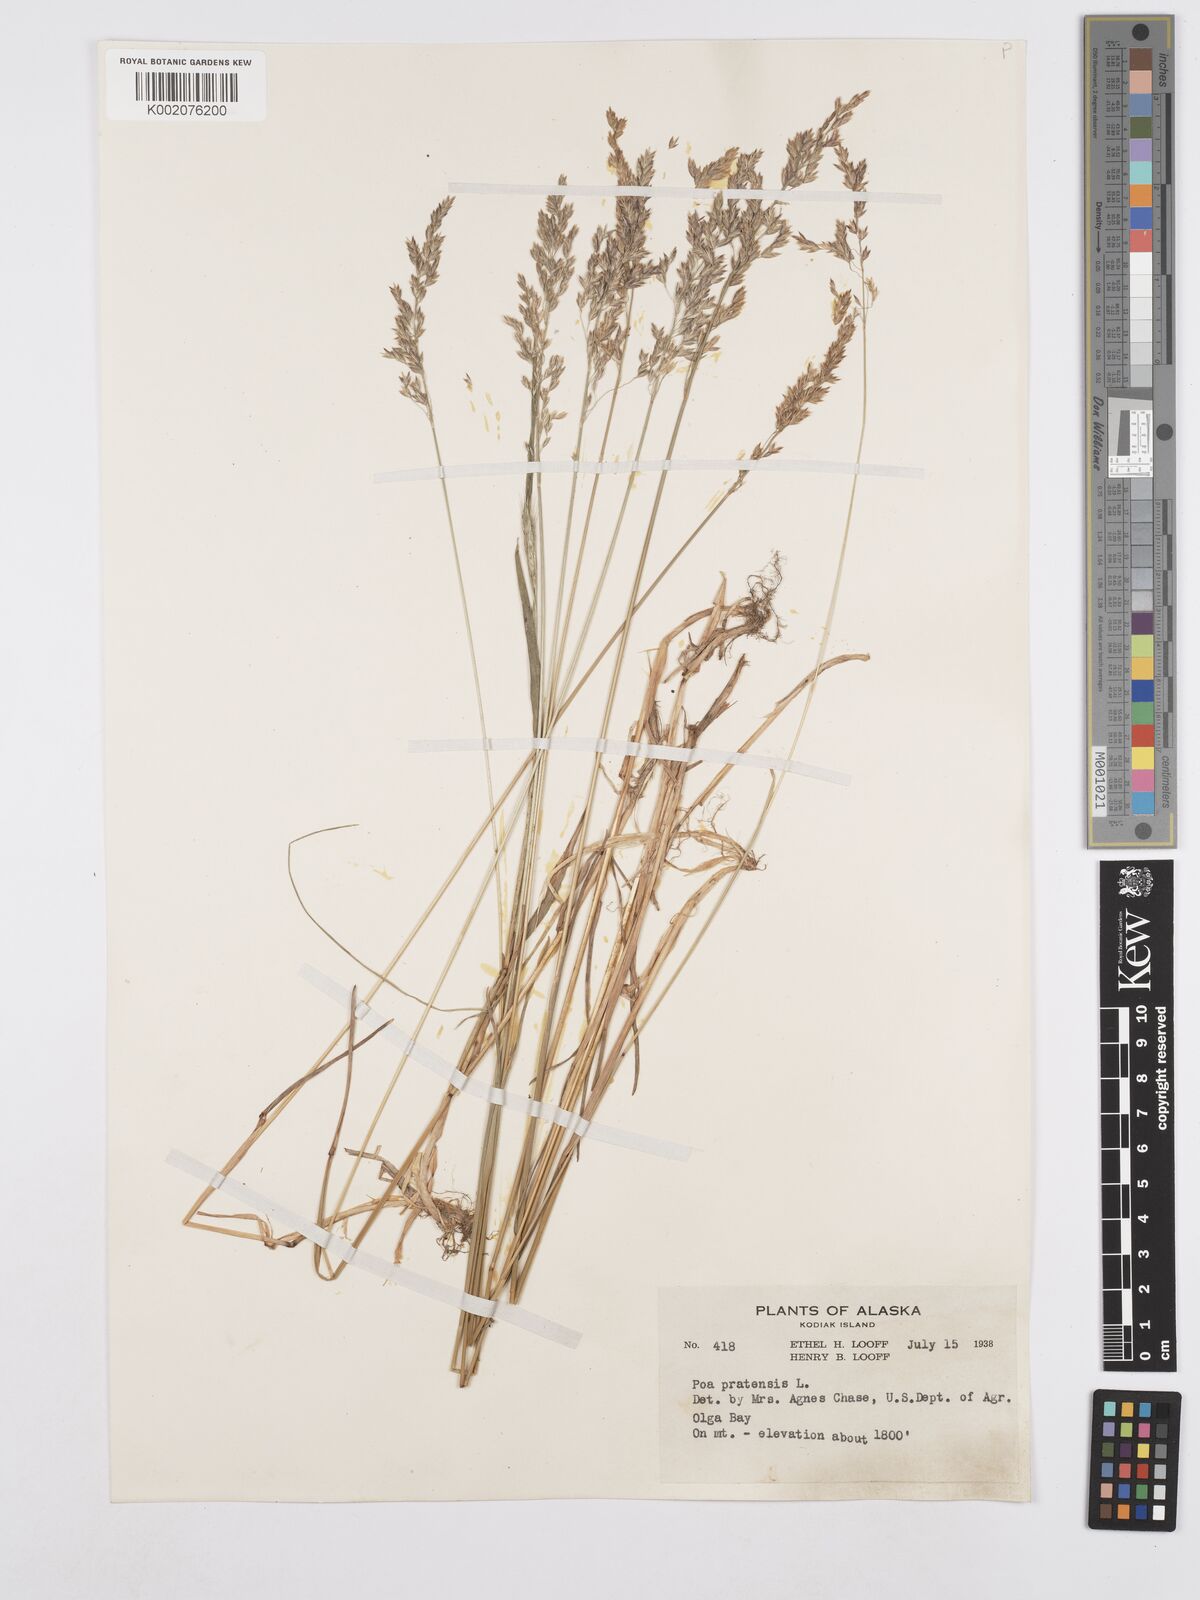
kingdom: Plantae
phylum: Tracheophyta
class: Liliopsida
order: Poales
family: Poaceae
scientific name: Poaceae
